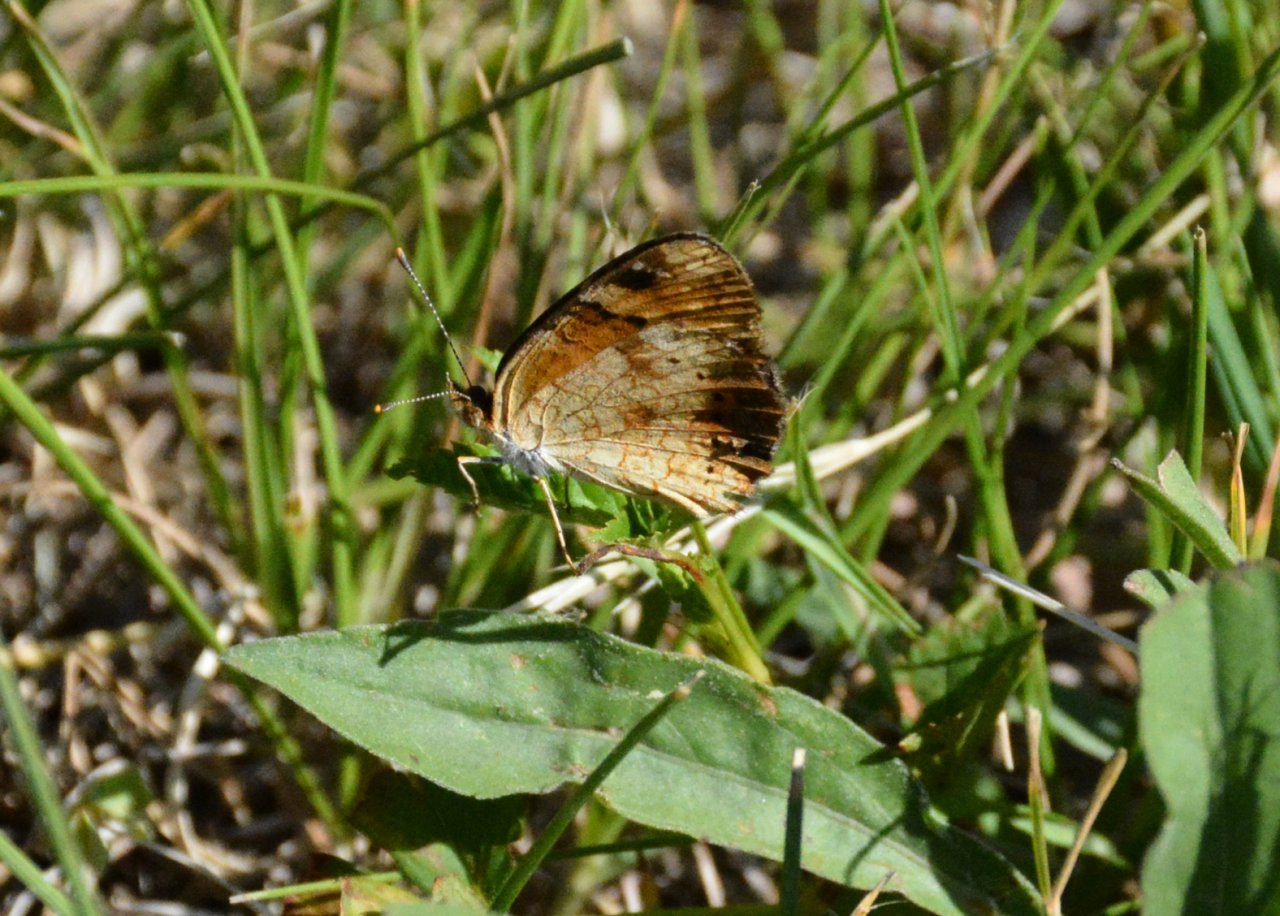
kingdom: Animalia
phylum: Arthropoda
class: Insecta
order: Lepidoptera
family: Nymphalidae
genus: Phyciodes
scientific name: Phyciodes tharos
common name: Northern Crescent
